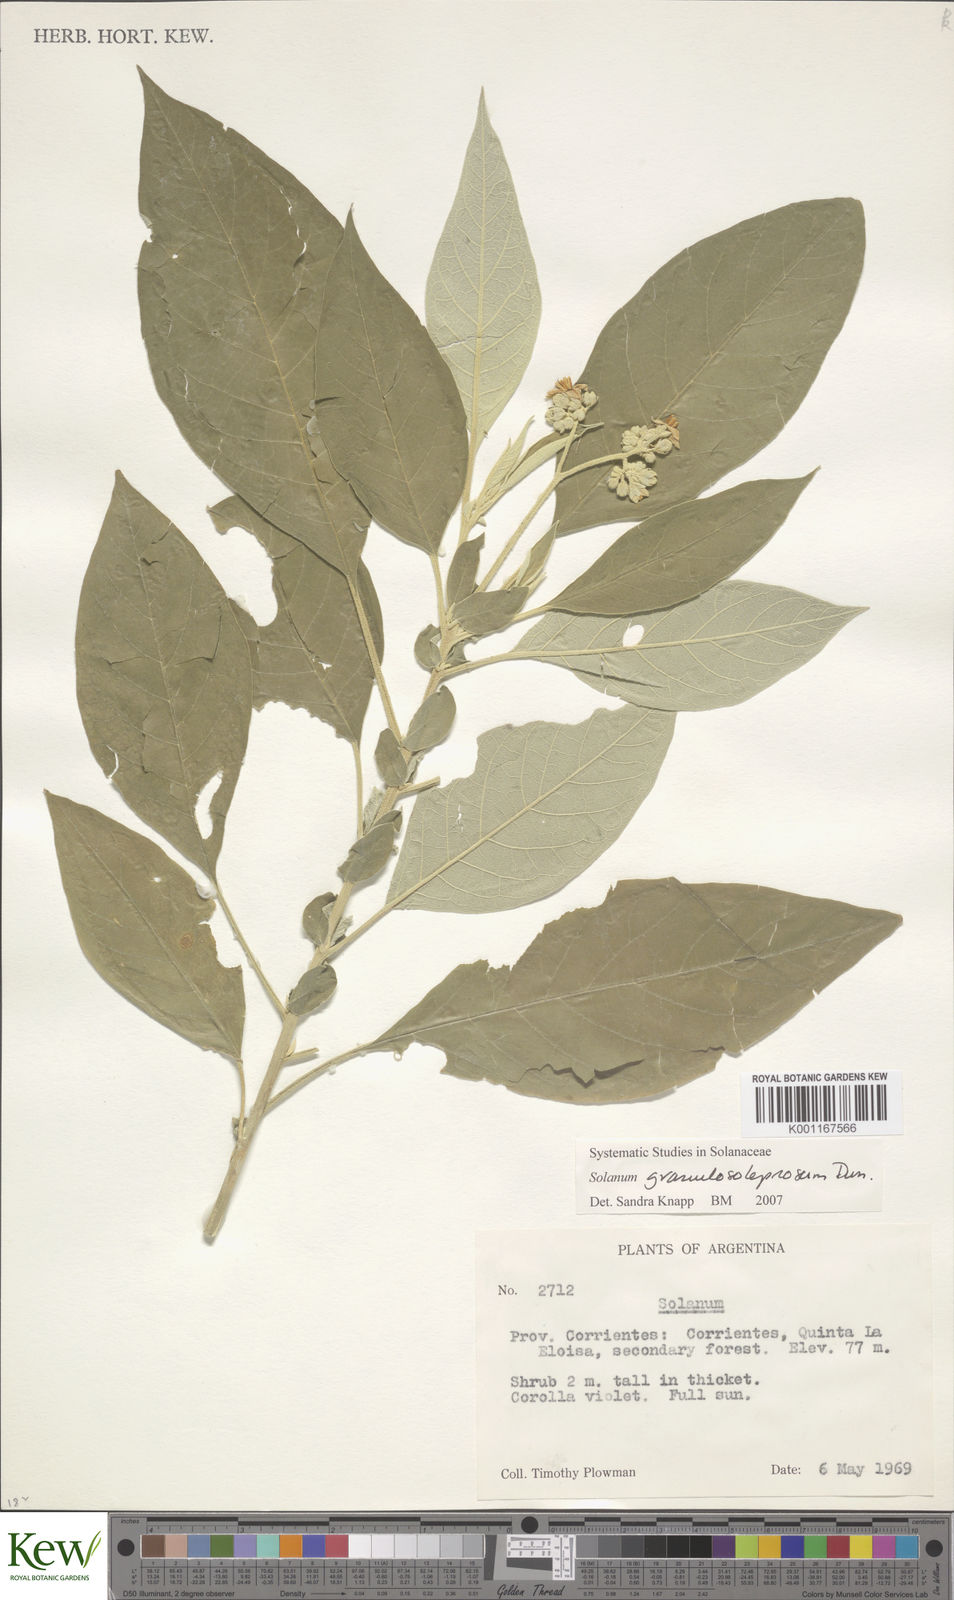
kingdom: Plantae
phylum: Tracheophyta
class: Magnoliopsida
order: Solanales
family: Solanaceae
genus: Solanum
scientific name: Solanum granulosoleprosum
